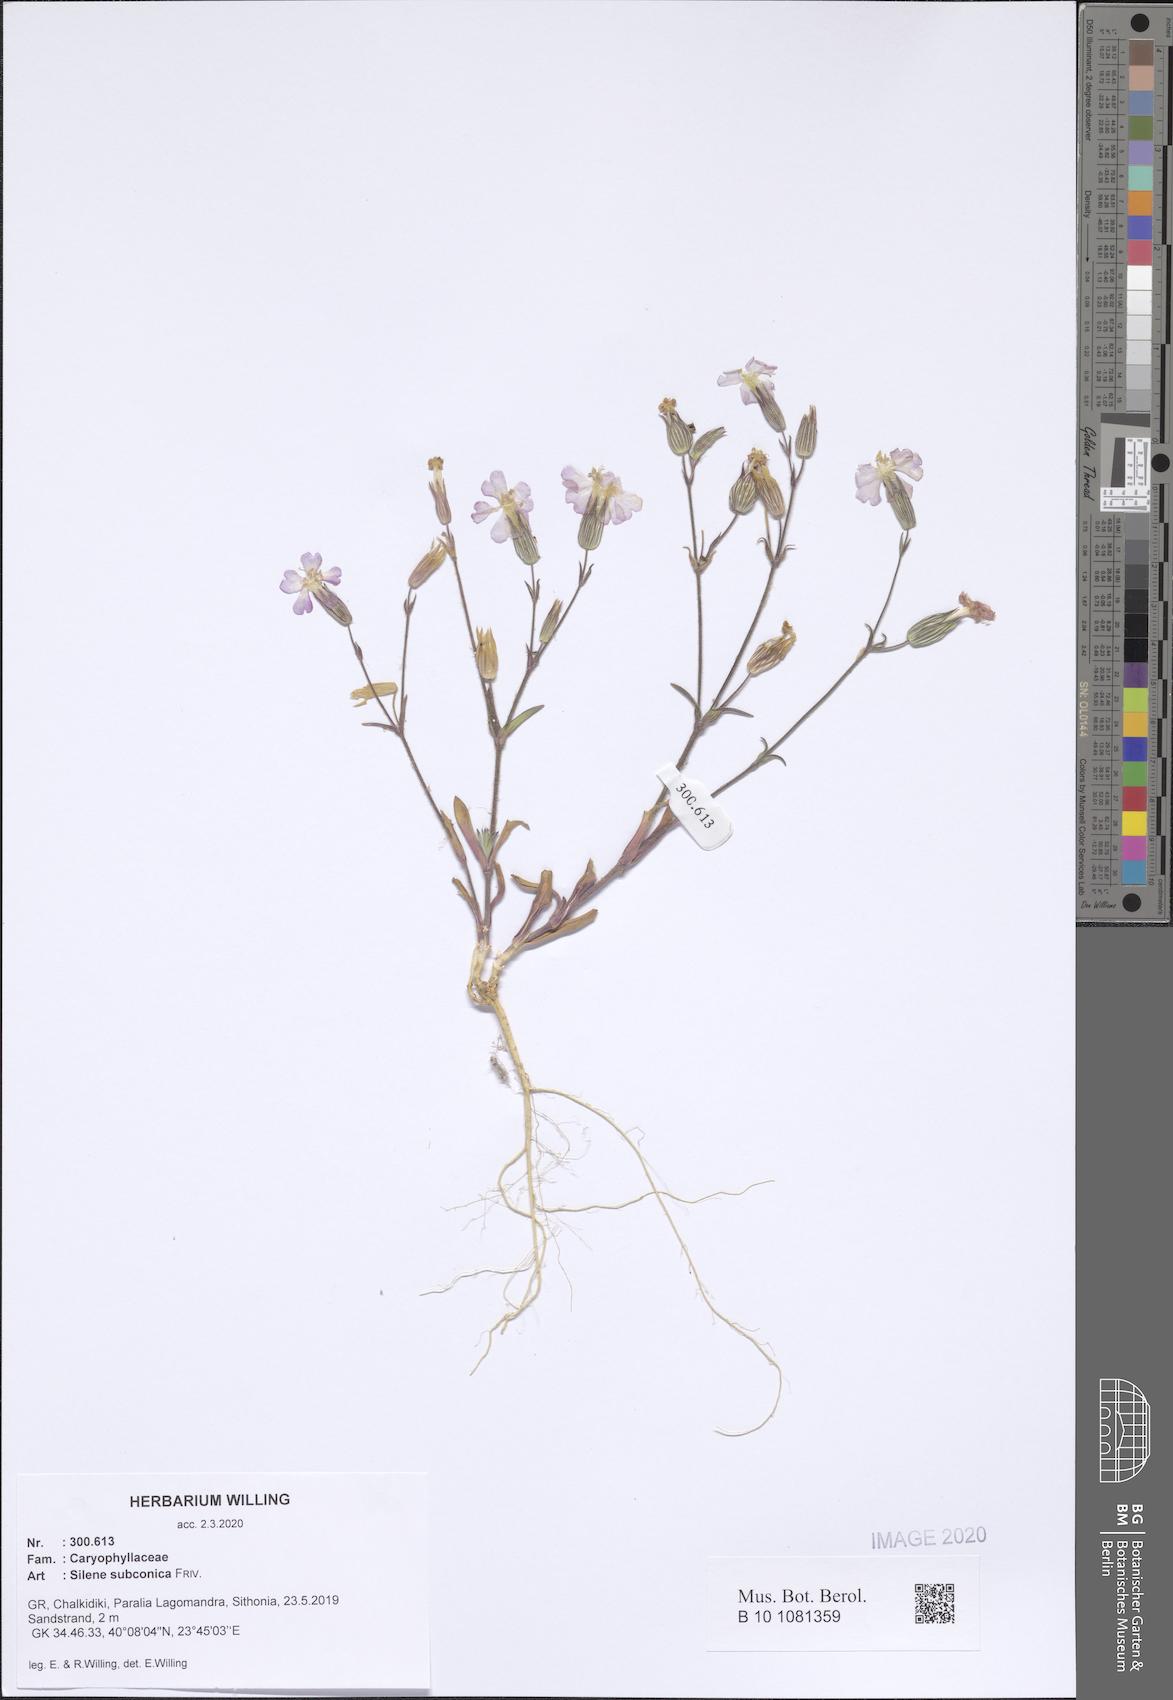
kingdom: Plantae
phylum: Tracheophyta
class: Magnoliopsida
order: Caryophyllales
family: Caryophyllaceae
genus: Silene
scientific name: Silene subconica
